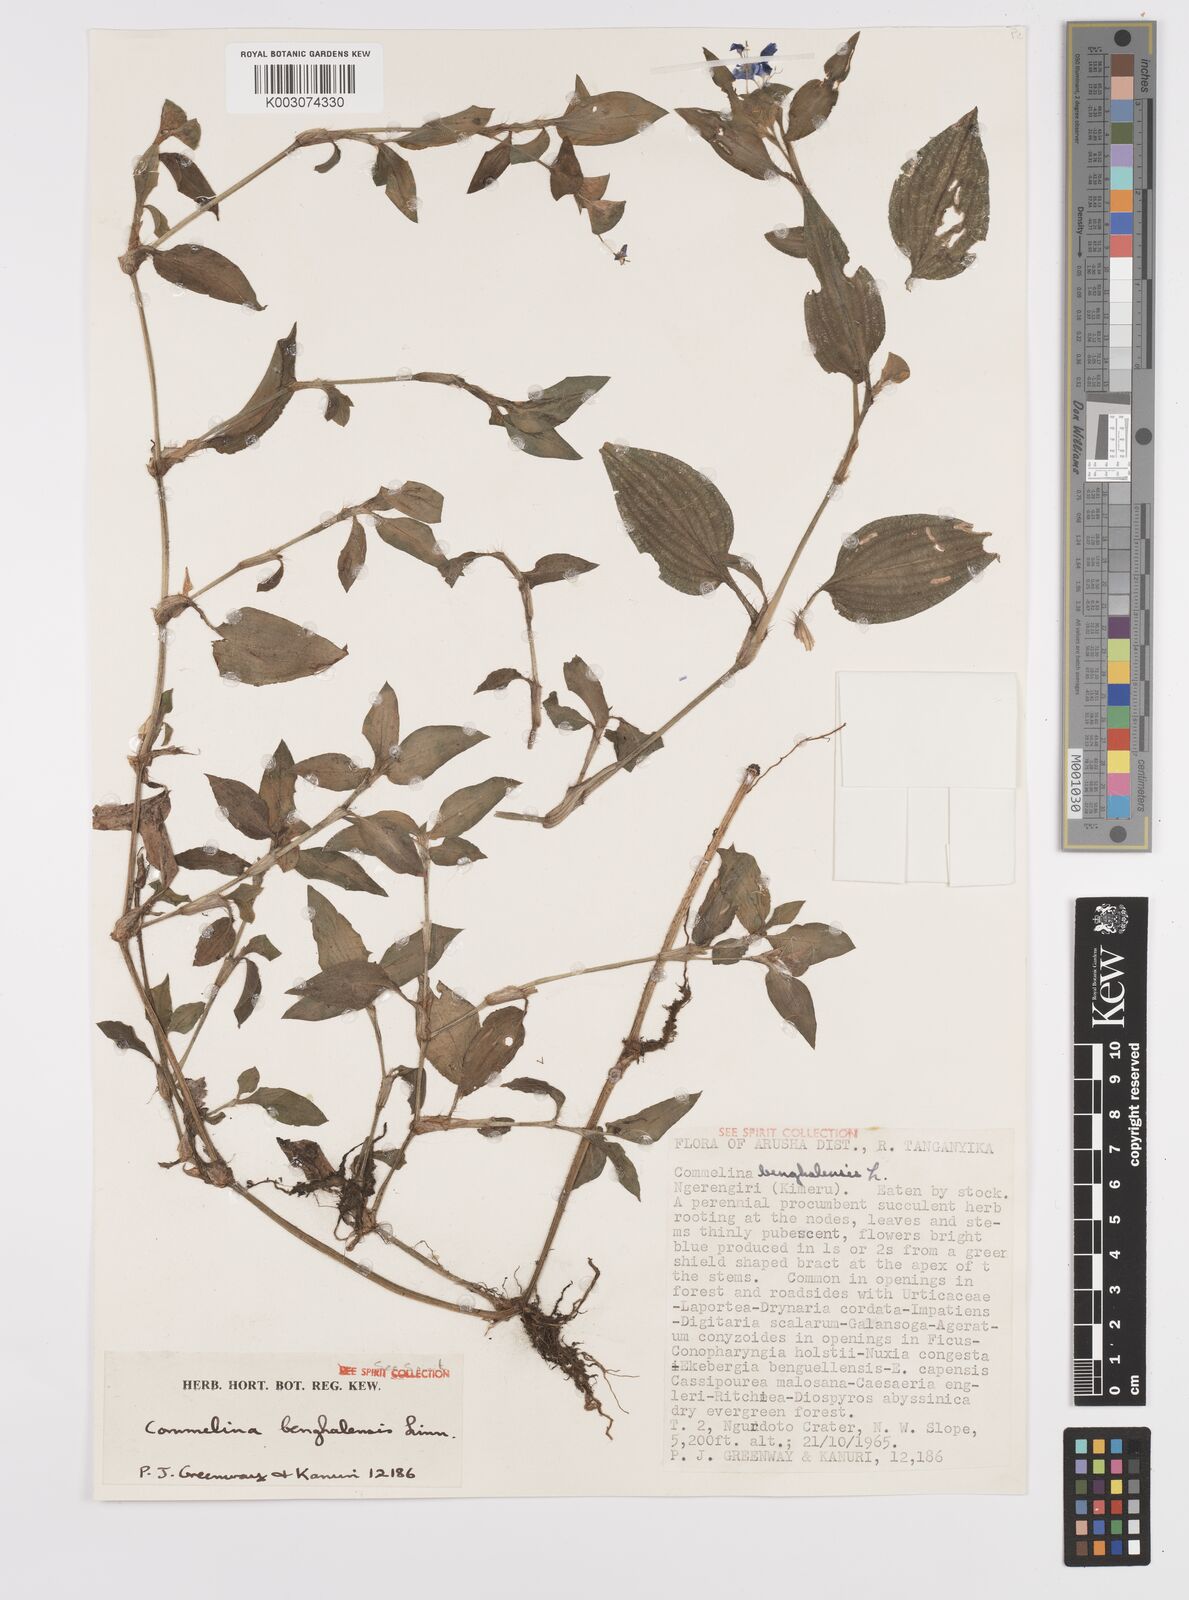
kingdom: Plantae
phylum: Tracheophyta
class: Liliopsida
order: Commelinales
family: Commelinaceae
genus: Commelina
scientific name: Commelina benghalensis
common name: Jio
